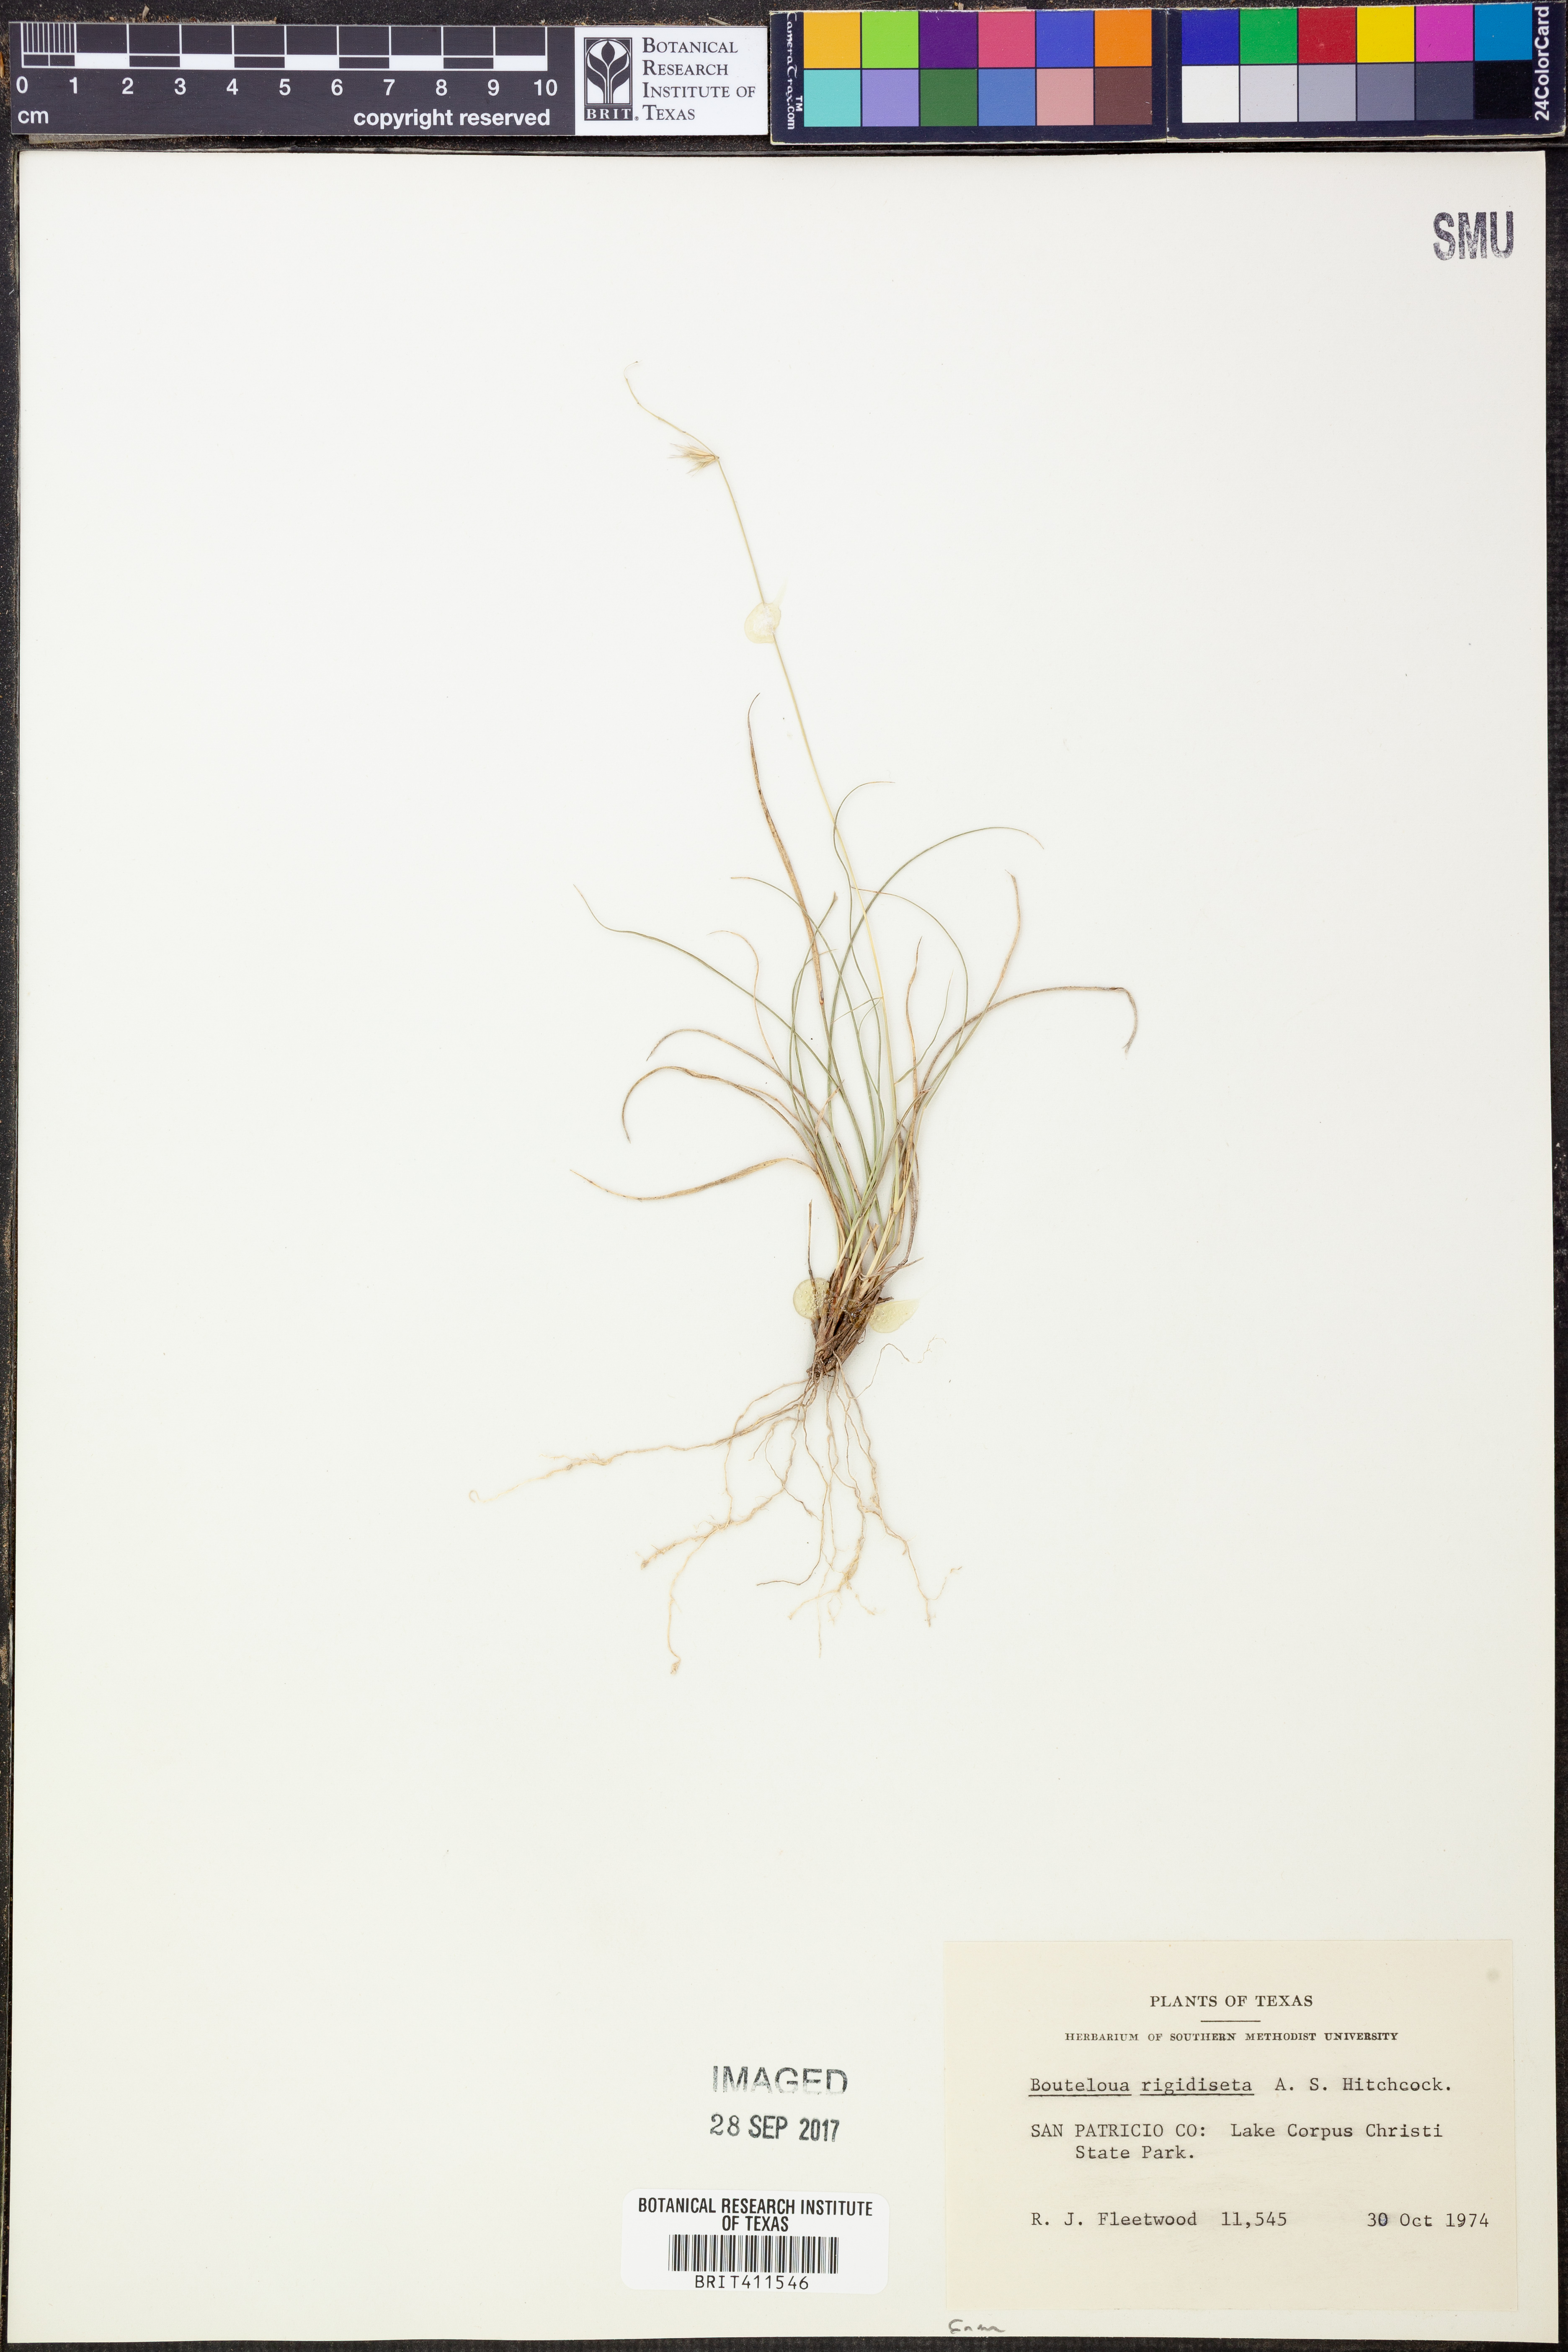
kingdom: Plantae
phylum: Tracheophyta
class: Liliopsida
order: Poales
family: Poaceae
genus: Bouteloua
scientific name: Bouteloua rigidiseta
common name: Texas grama
